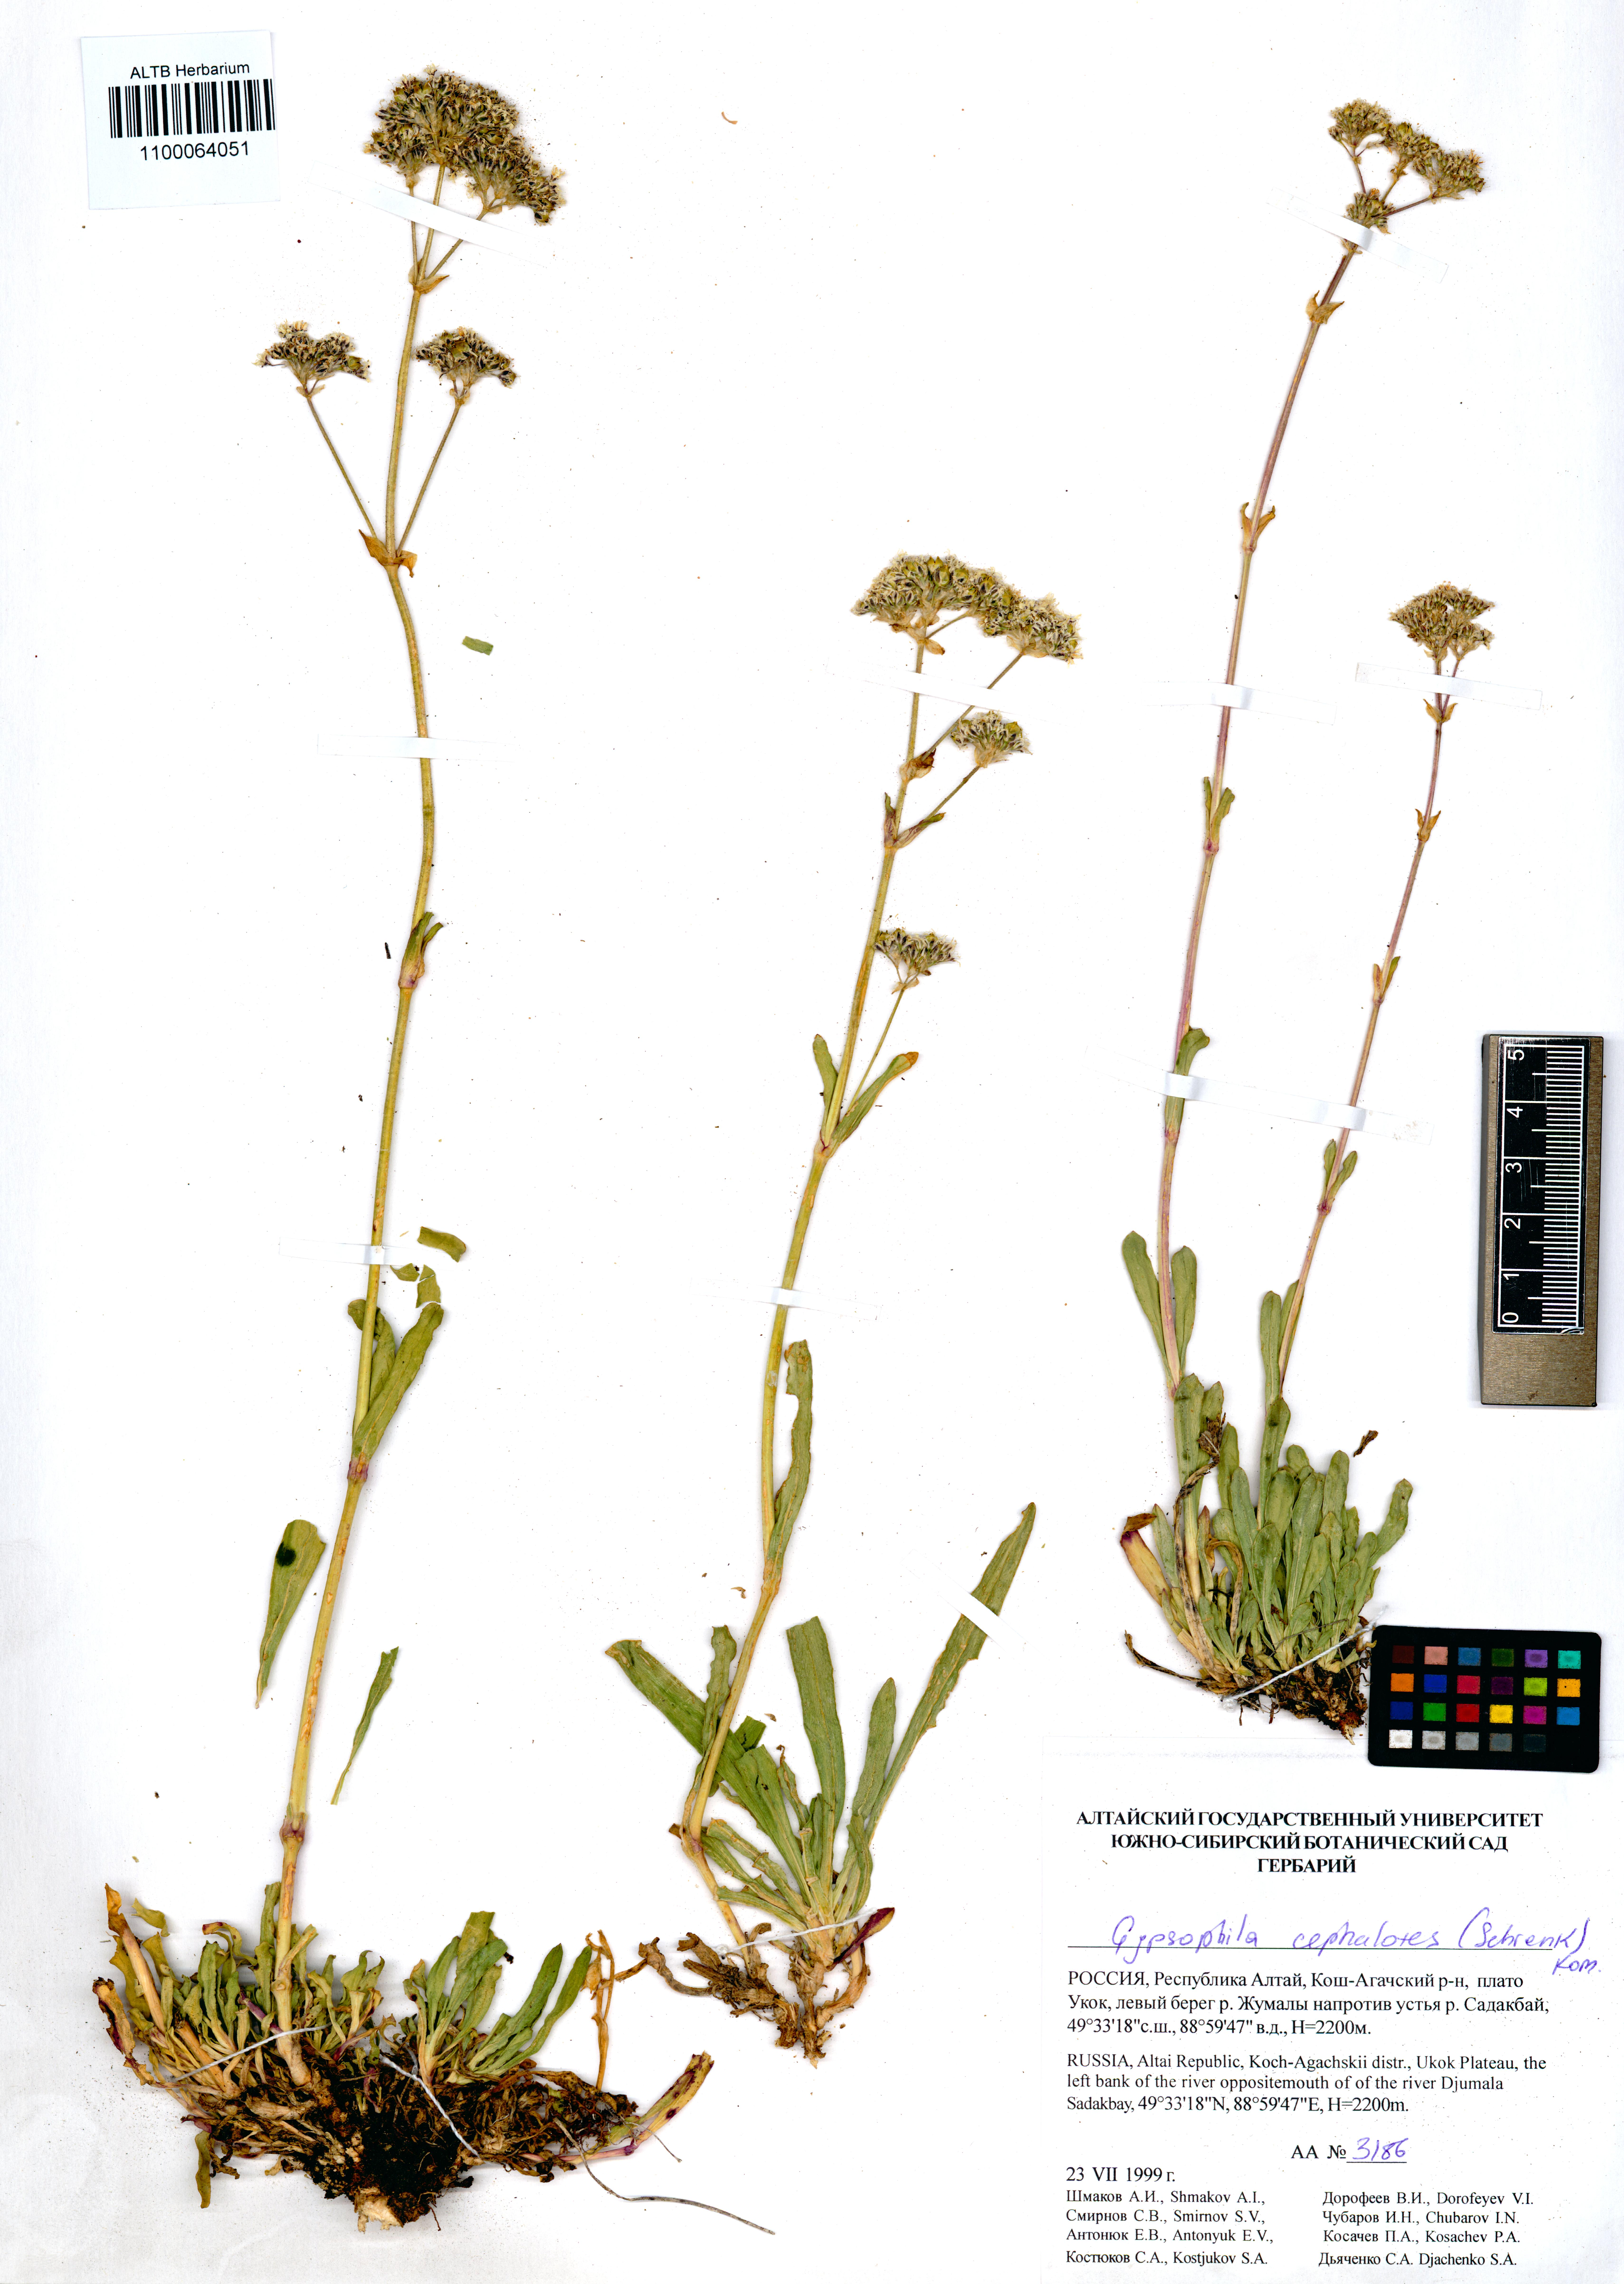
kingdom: Plantae
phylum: Tracheophyta
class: Magnoliopsida
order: Caryophyllales
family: Caryophyllaceae
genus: Gypsophila
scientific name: Gypsophila cephalotes
